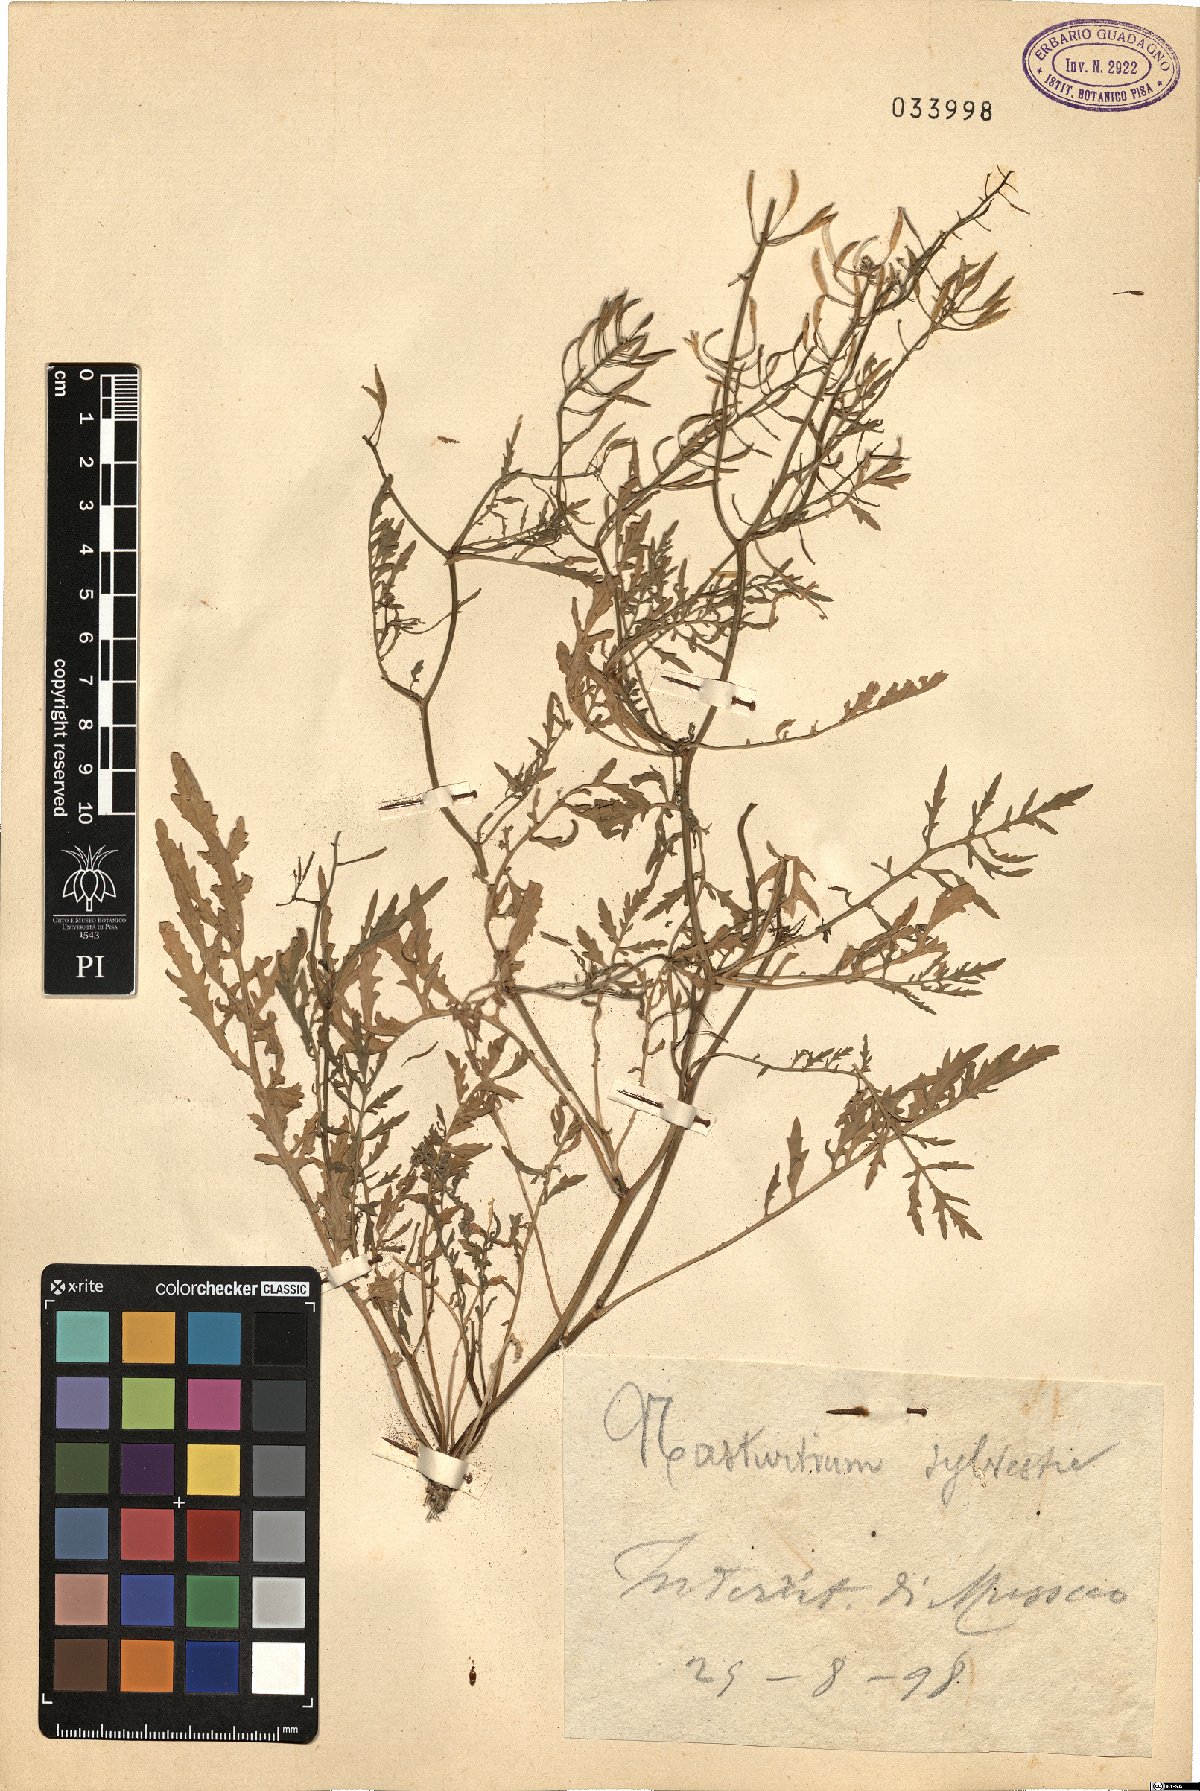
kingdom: Plantae
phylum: Tracheophyta
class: Magnoliopsida
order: Brassicales
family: Brassicaceae
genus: Rorippa
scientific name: Rorippa sylvestris
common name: Creeping yellowcress
